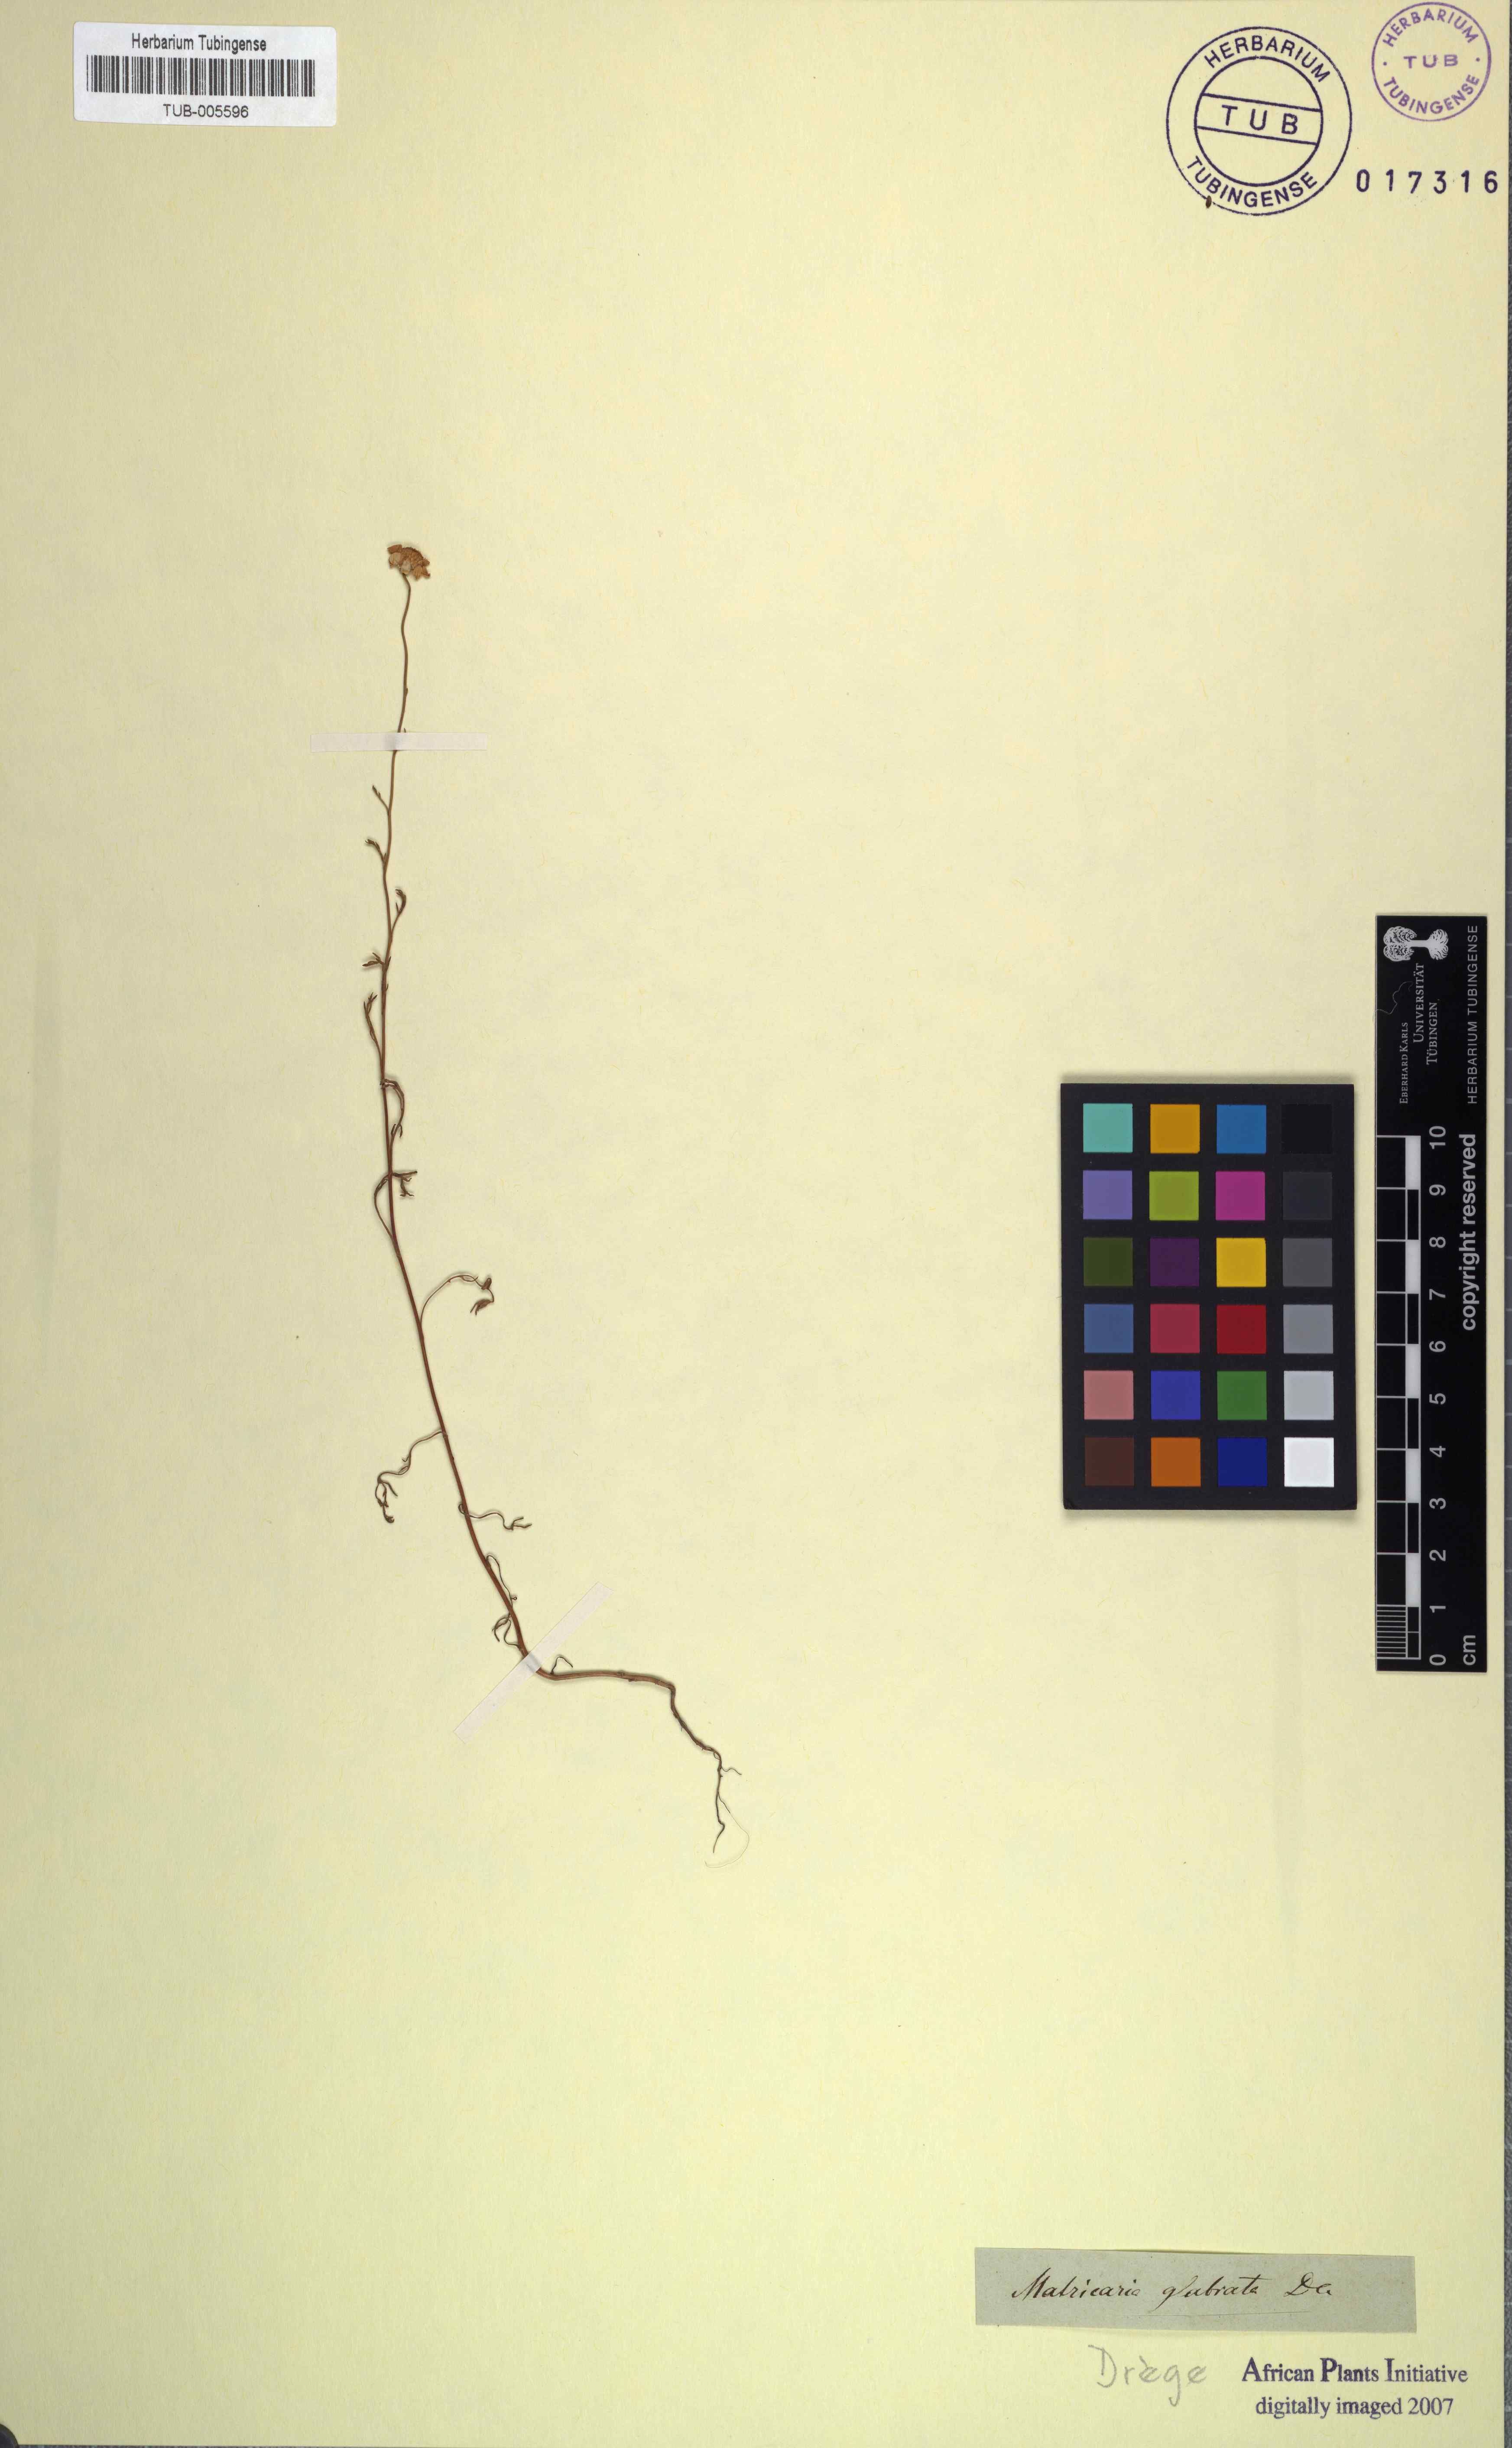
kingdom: Plantae
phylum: Tracheophyta
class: Magnoliopsida
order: Asterales
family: Asteraceae
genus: Oncosiphon
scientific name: Oncosiphon glabratus
